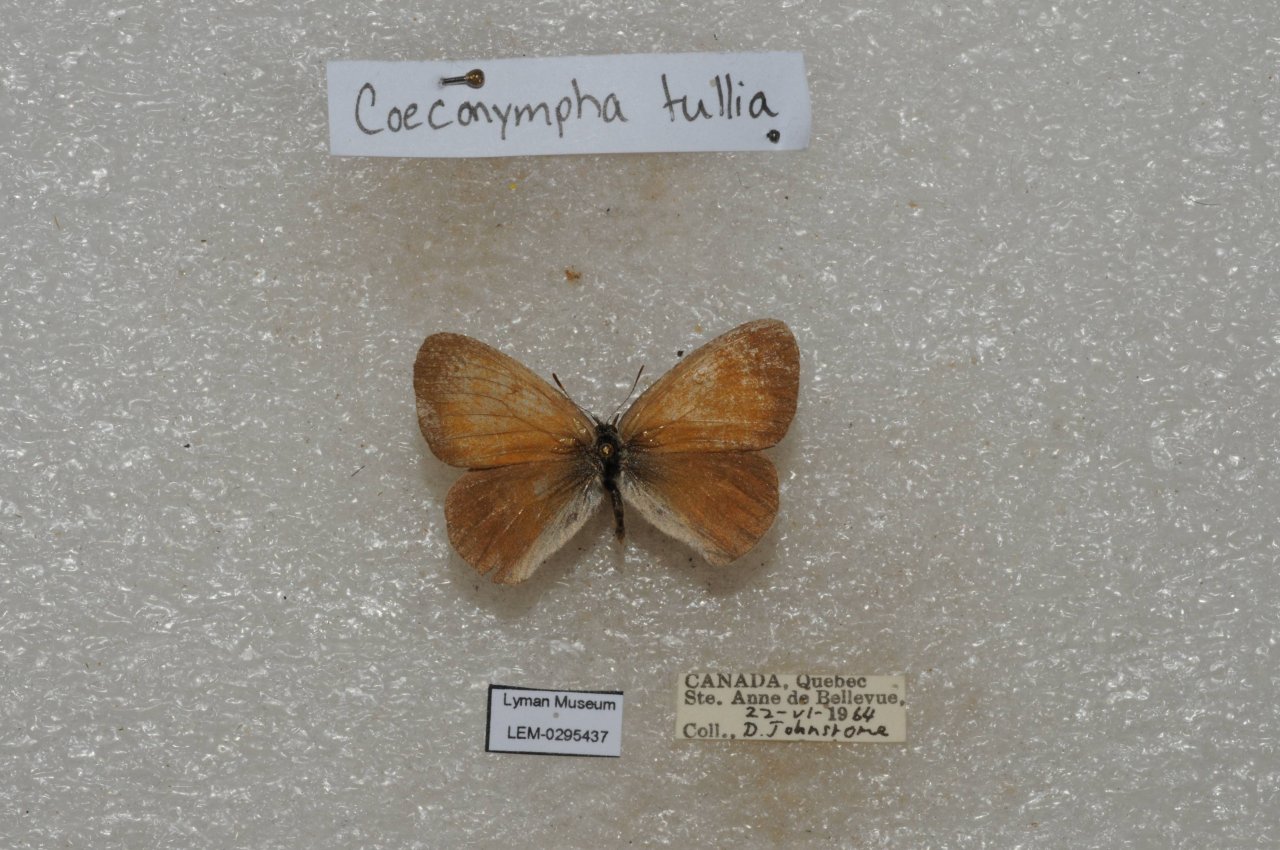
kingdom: Animalia
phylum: Arthropoda
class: Insecta
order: Lepidoptera
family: Nymphalidae
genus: Coenonympha
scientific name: Coenonympha tullia
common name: Large Heath
